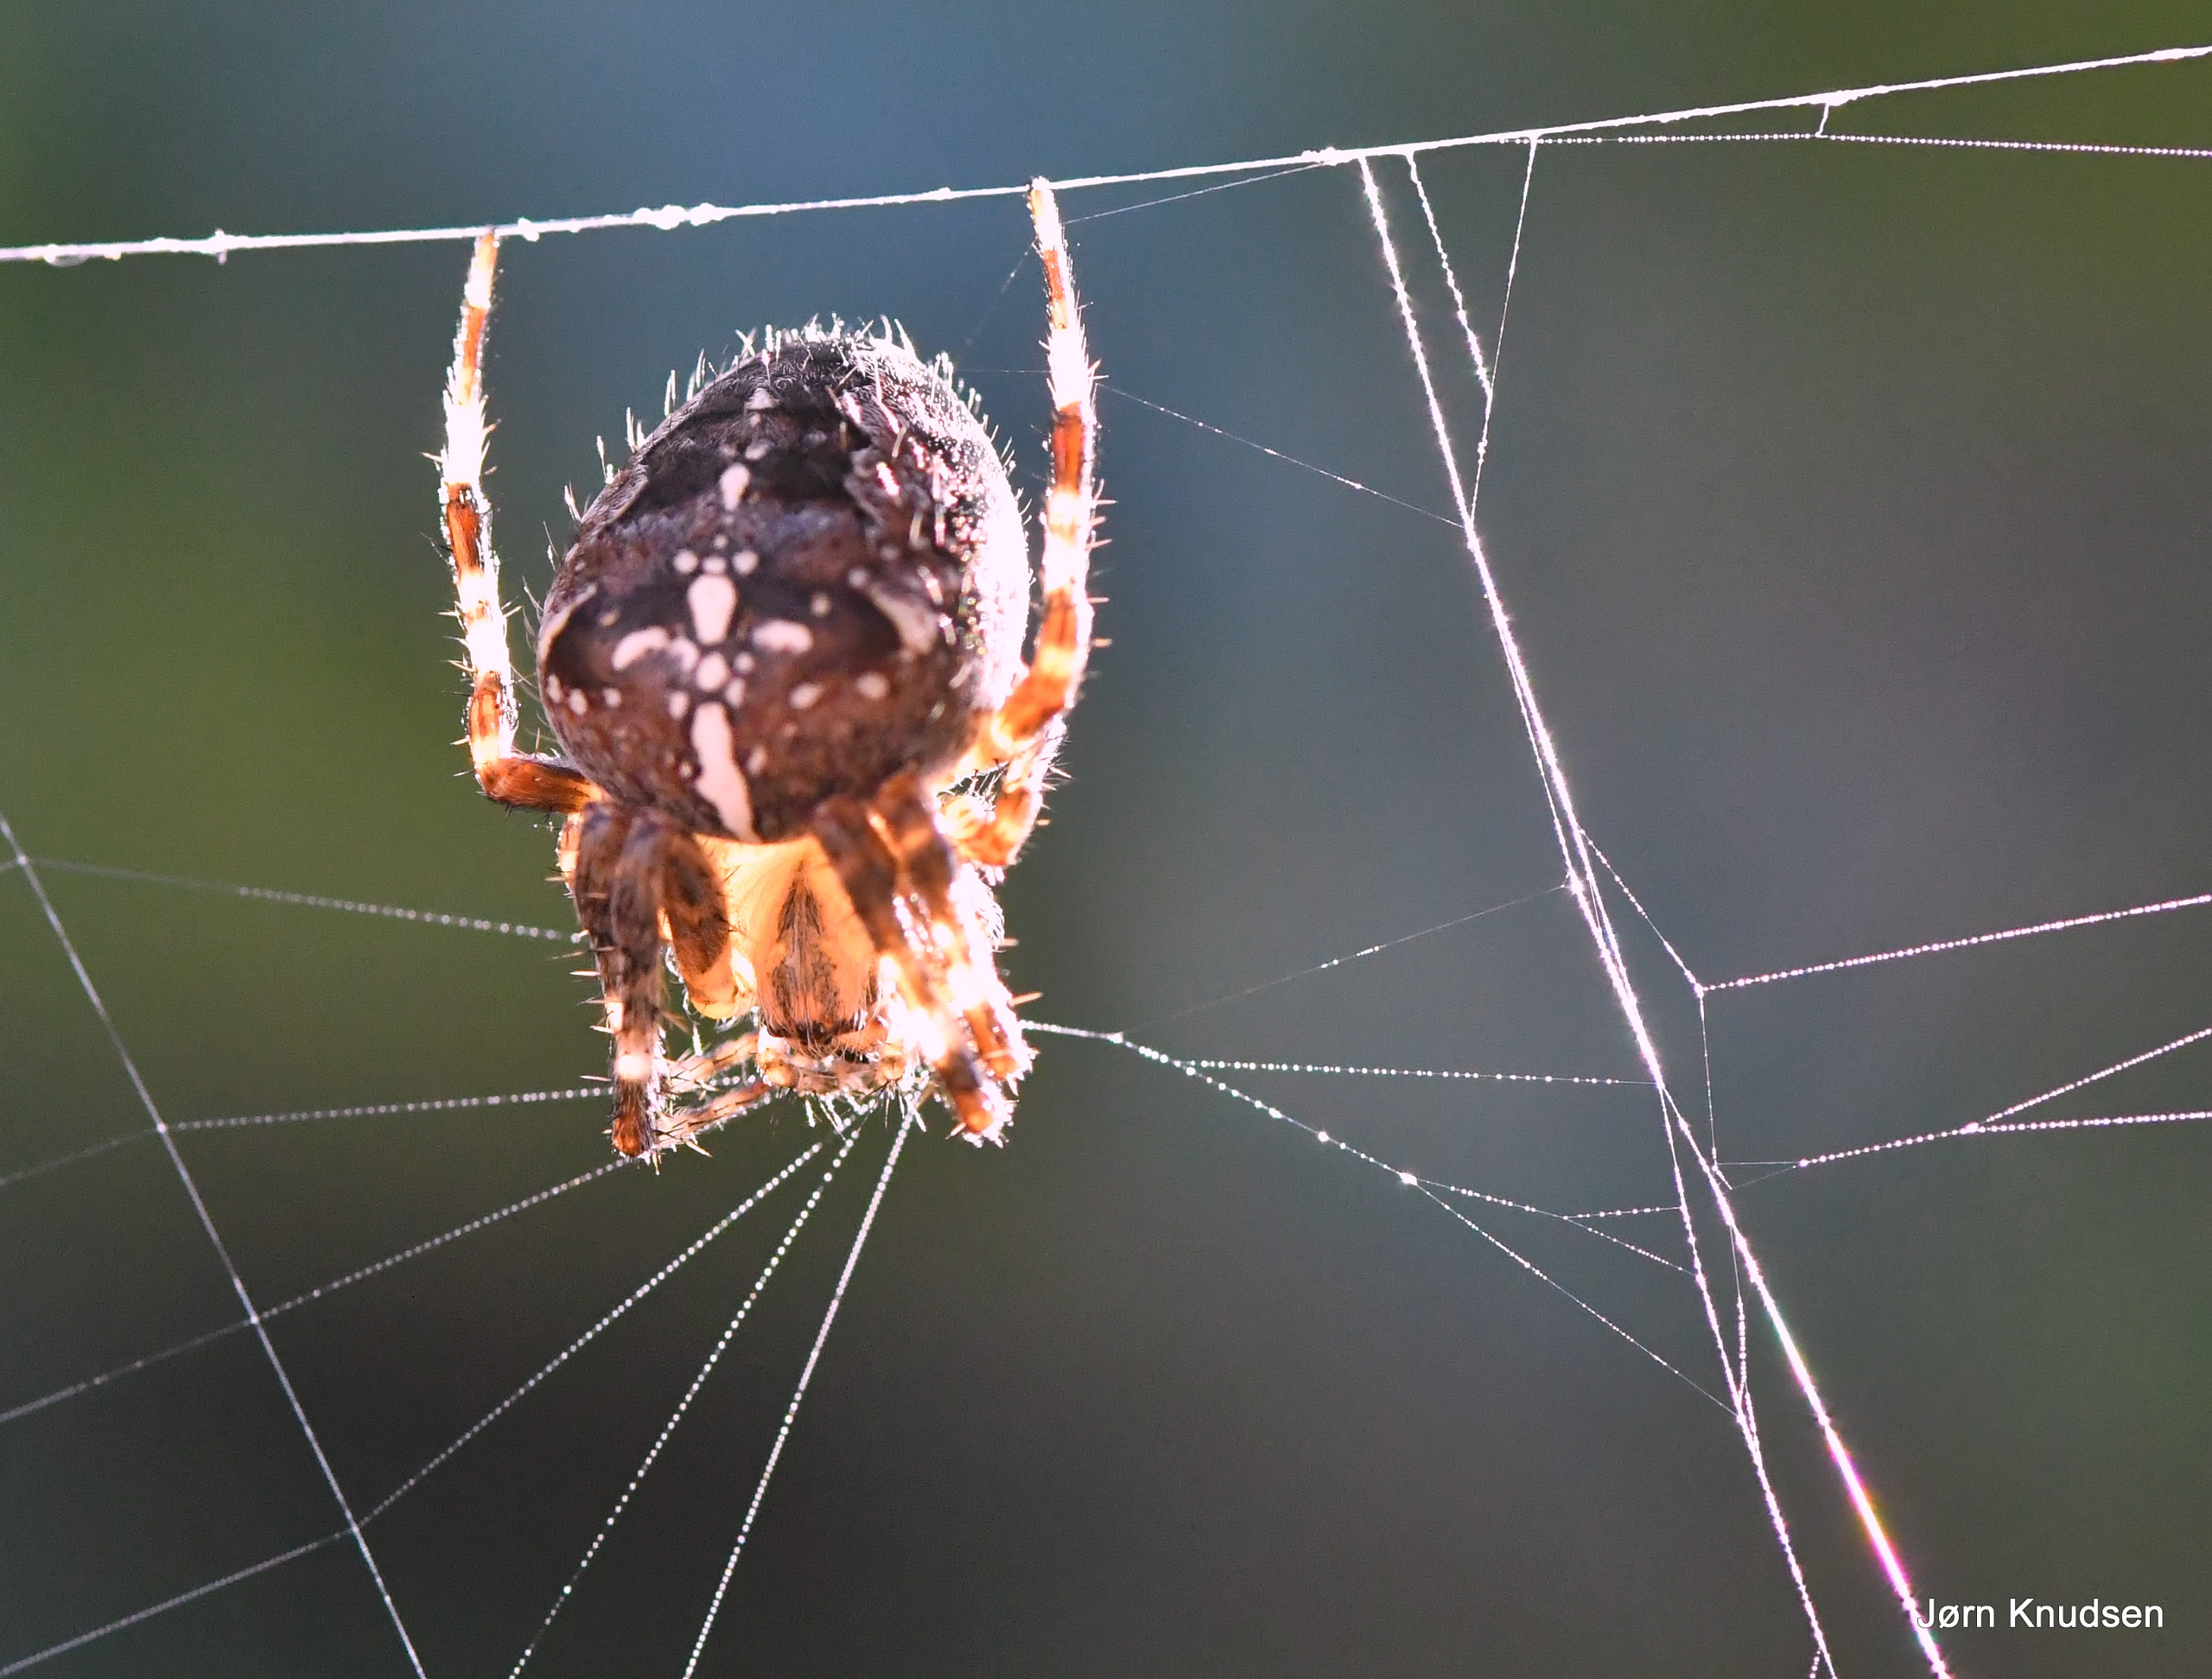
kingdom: Animalia
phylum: Arthropoda
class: Arachnida
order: Araneae
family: Araneidae
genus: Araneus
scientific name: Araneus diadematus
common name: Korsedderkop
